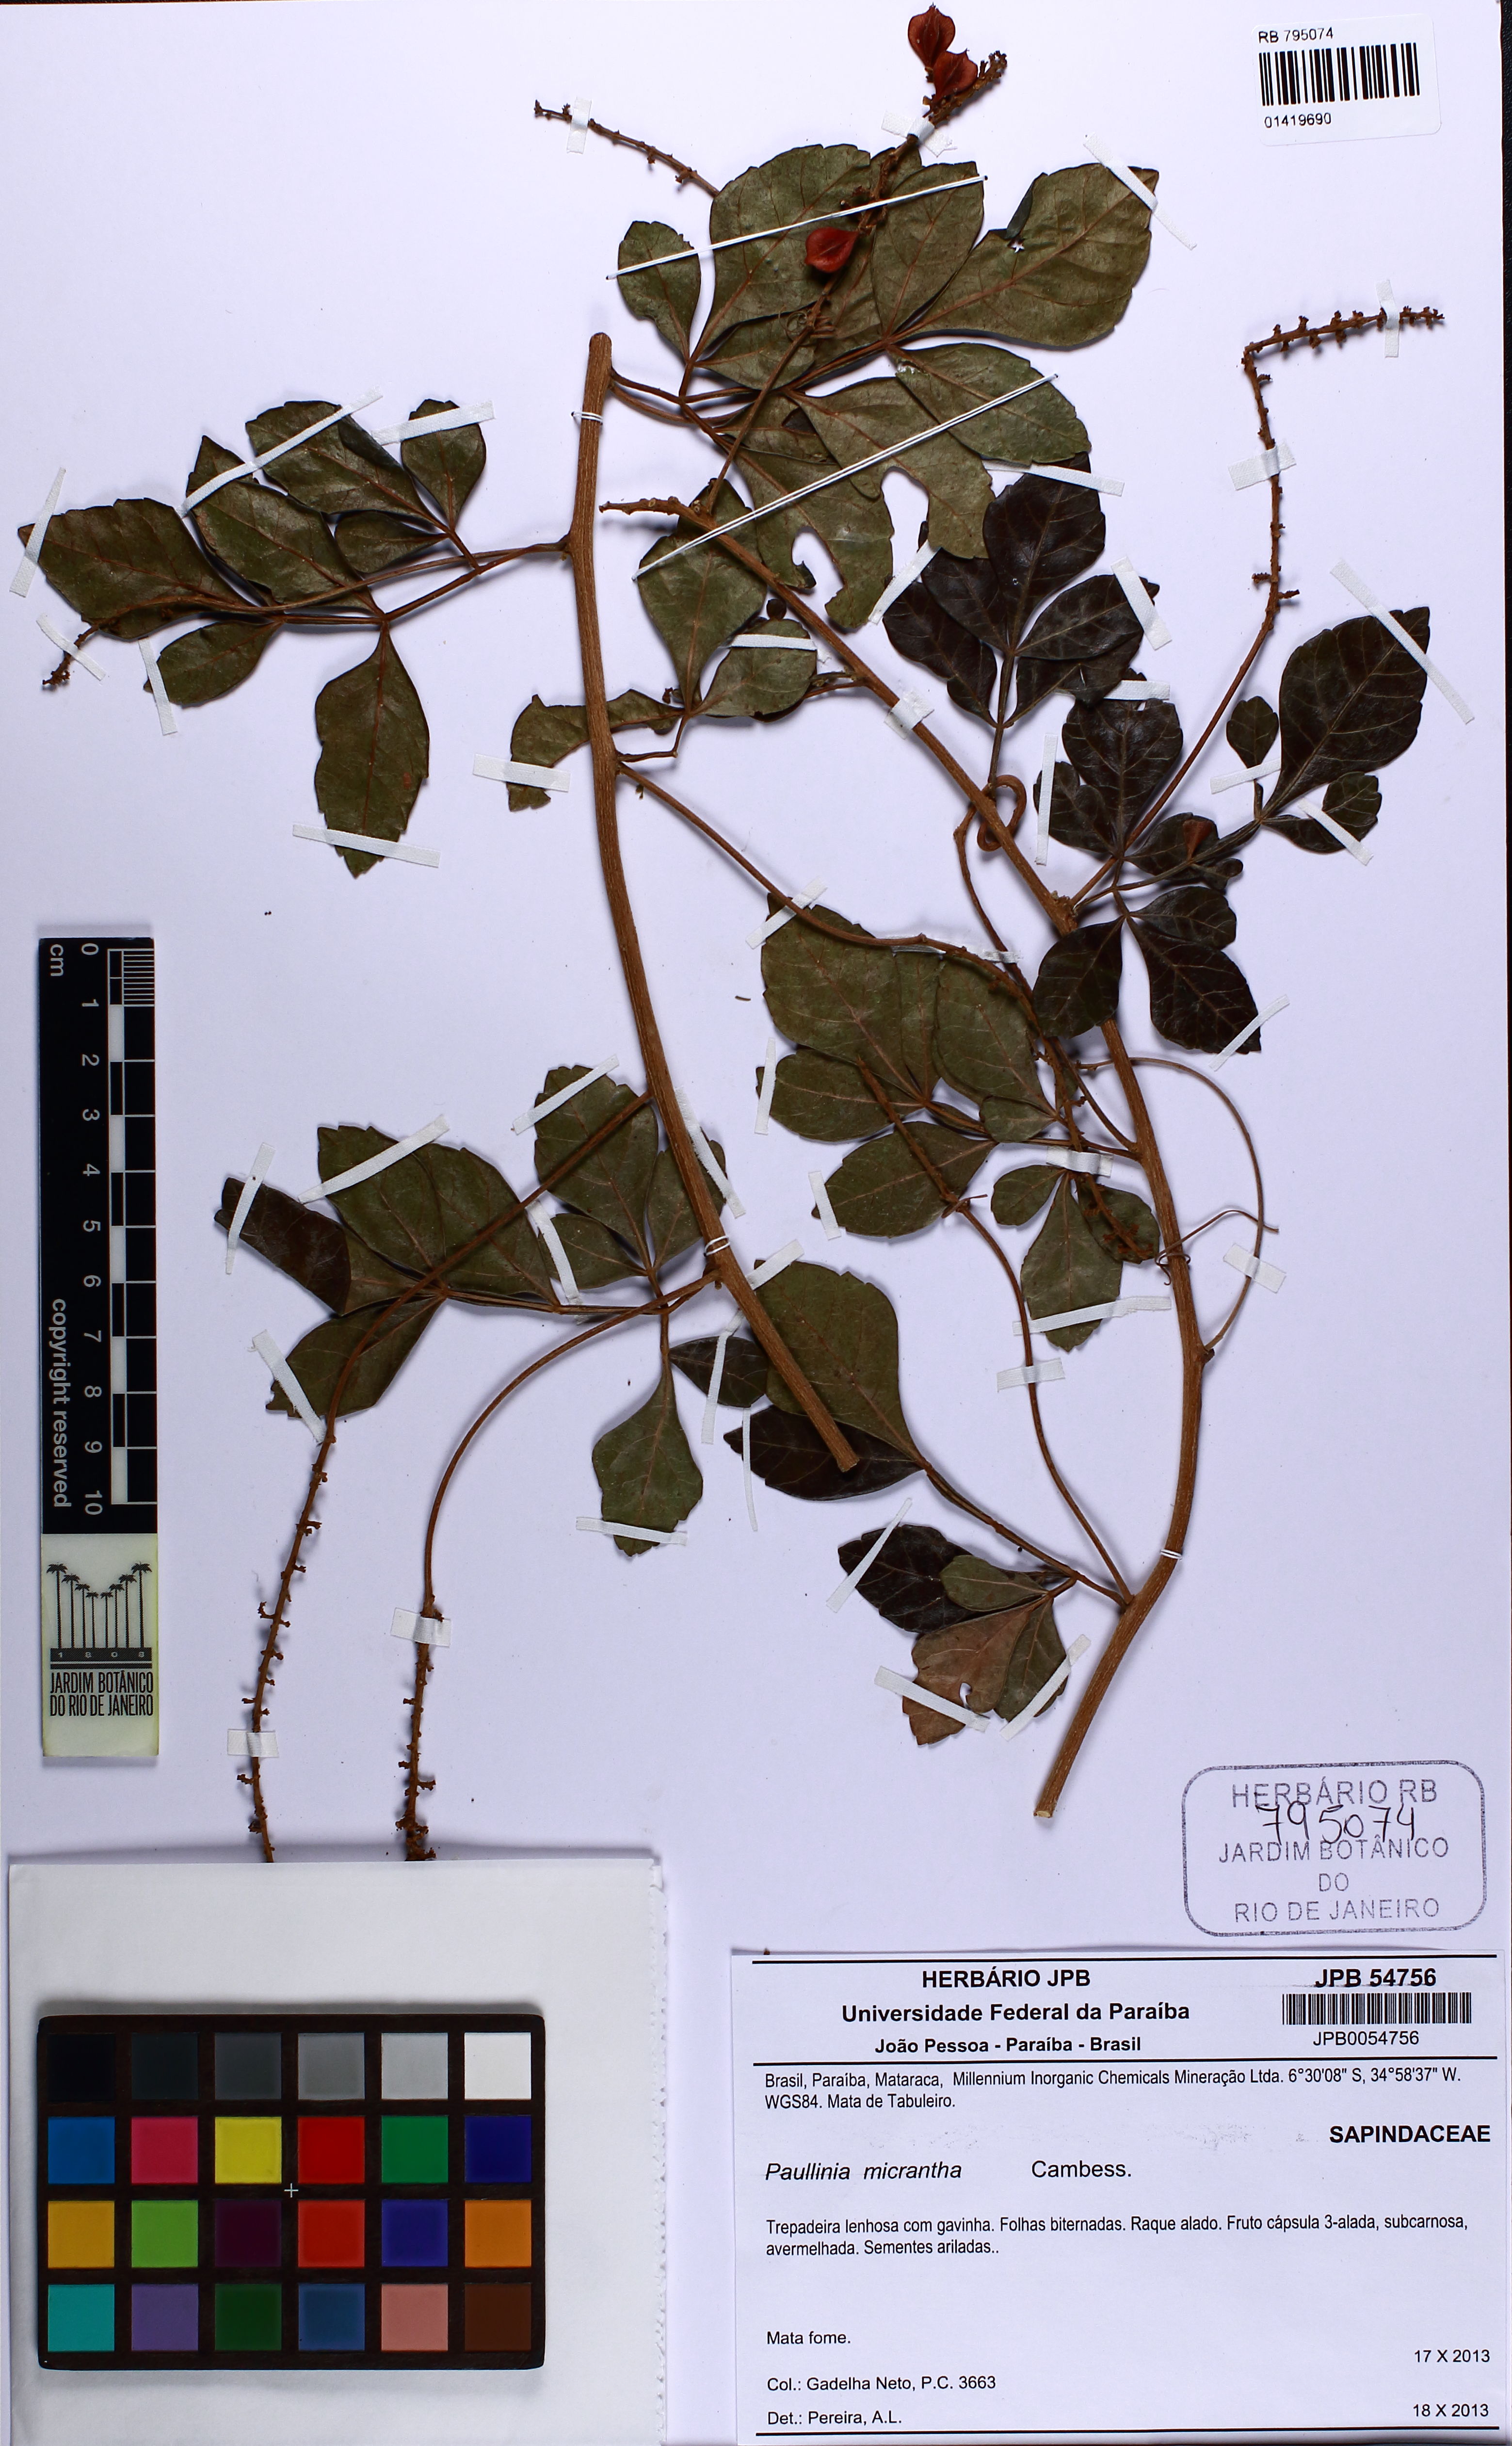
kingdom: Plantae
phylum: Tracheophyta
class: Magnoliopsida
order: Sapindales
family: Sapindaceae
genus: Paullinia
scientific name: Paullinia micrantha
